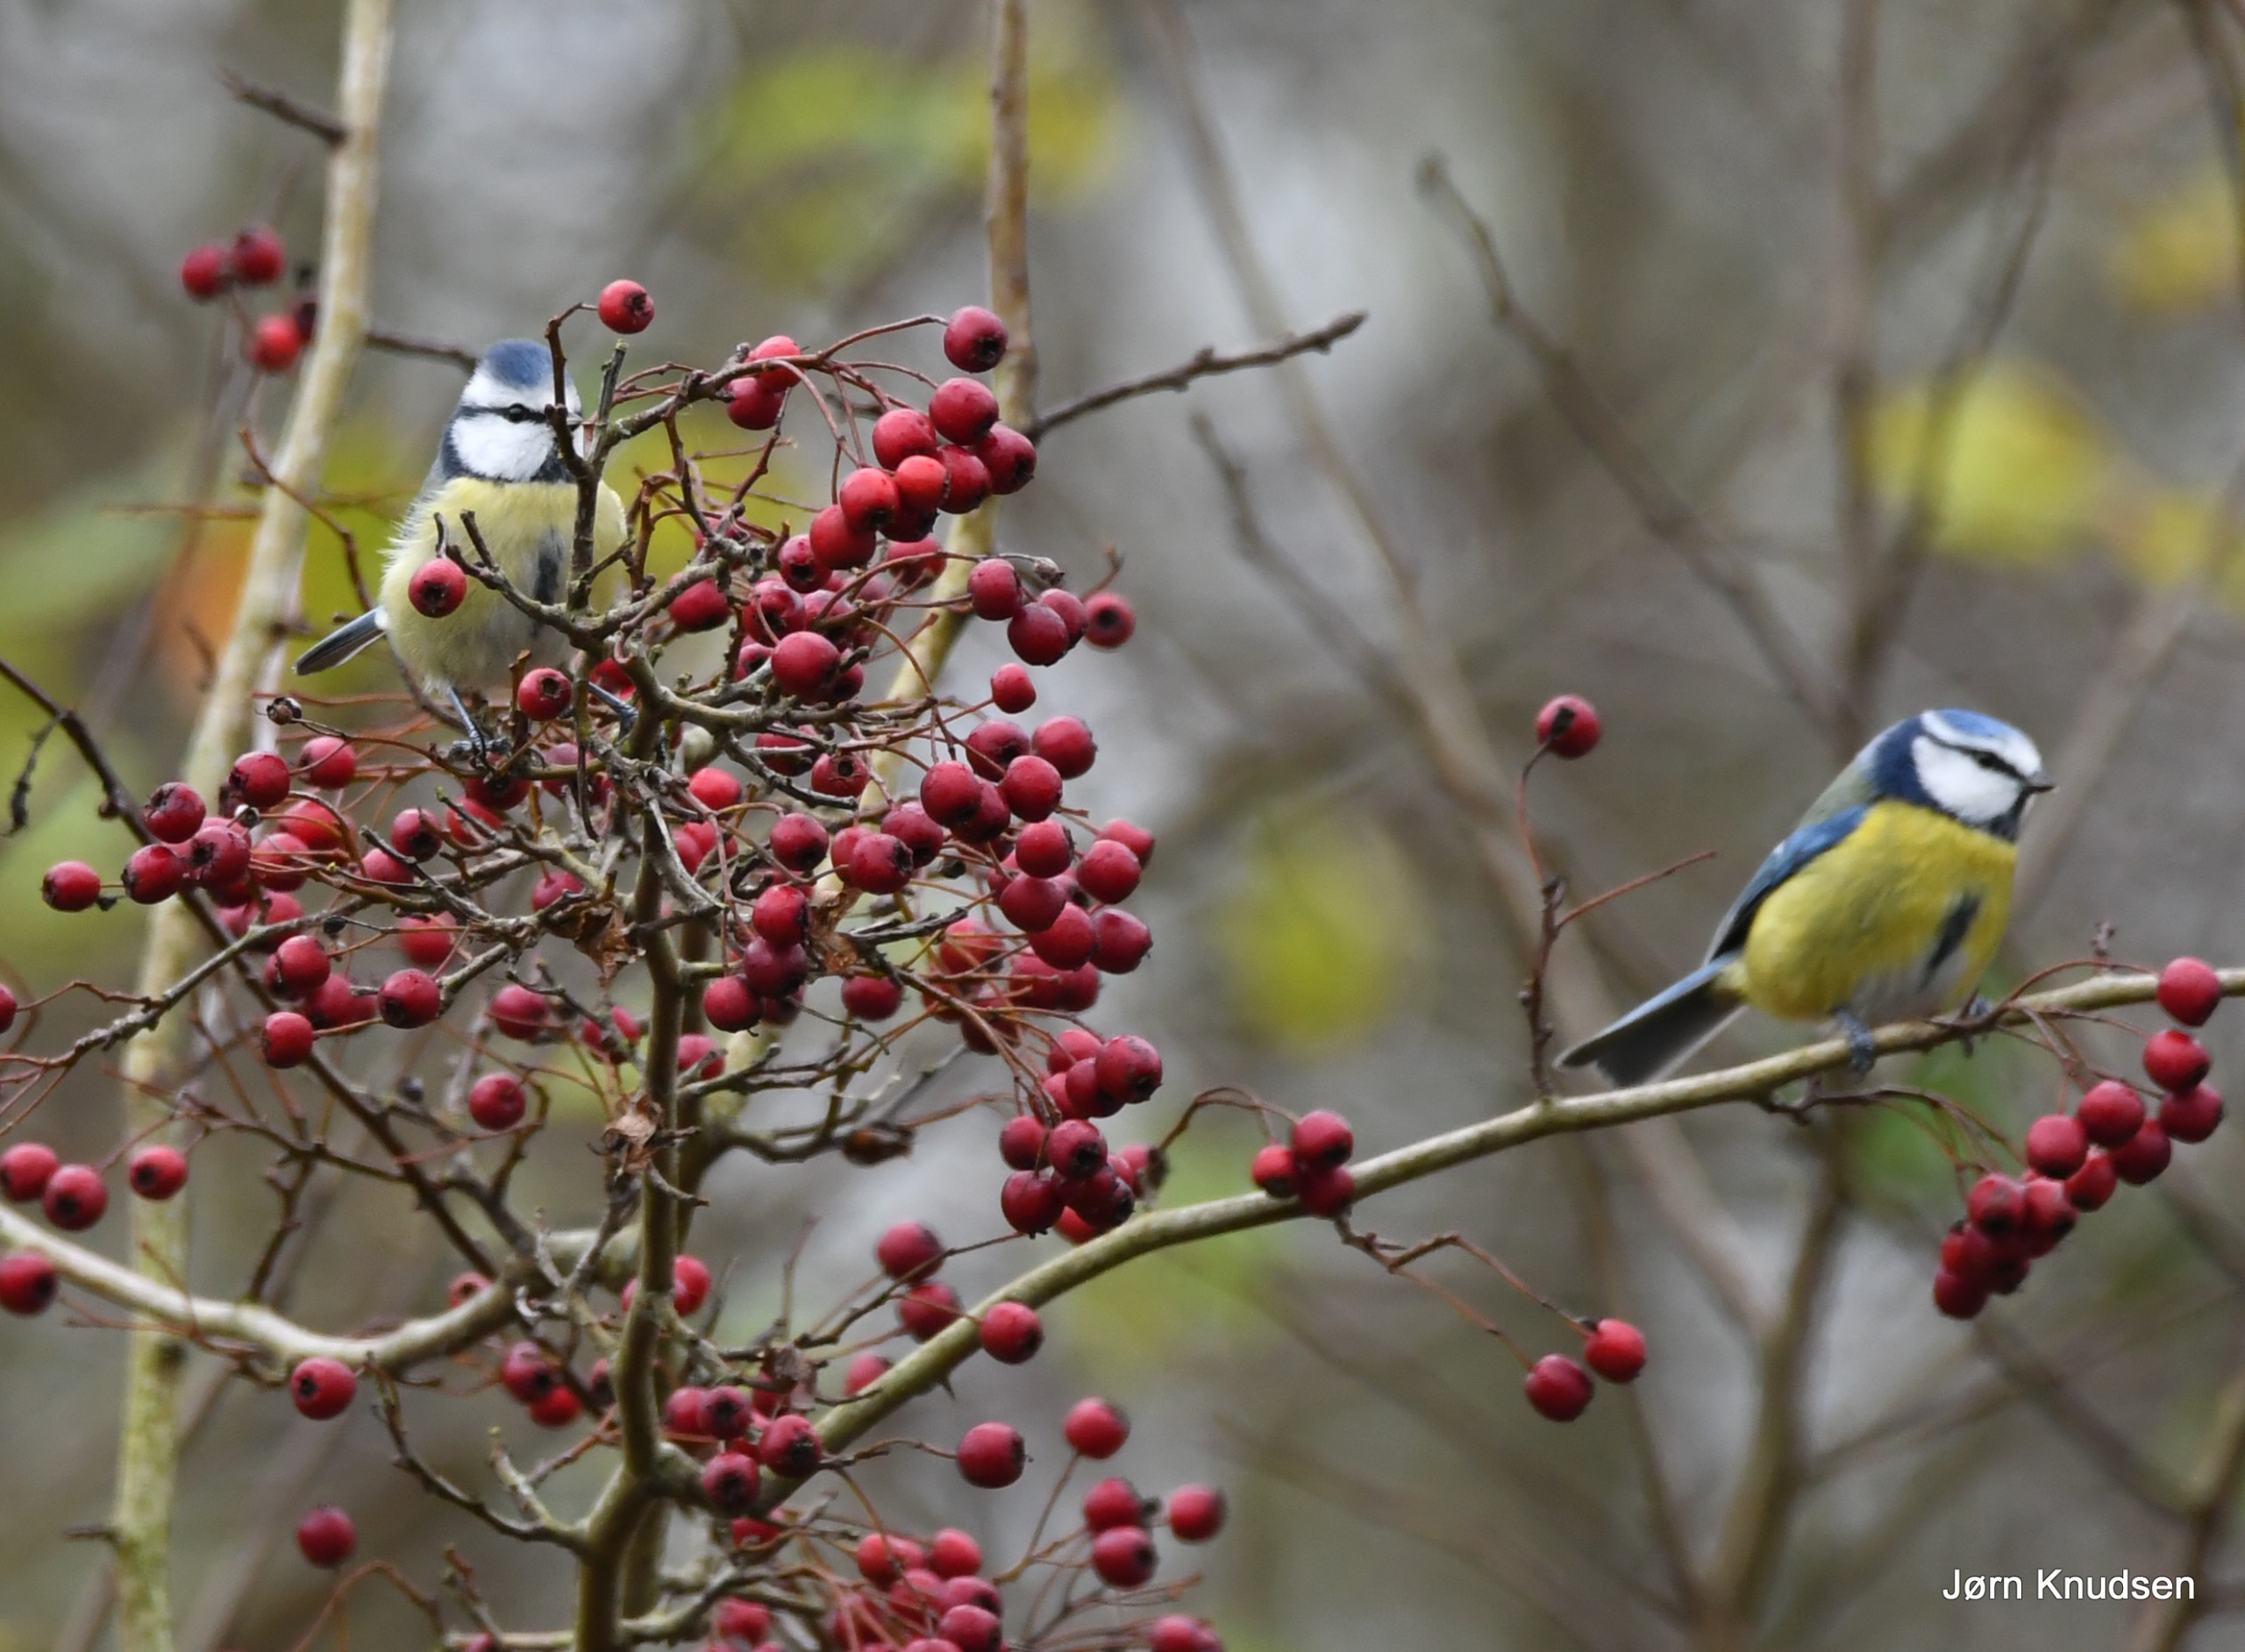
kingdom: Animalia
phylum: Chordata
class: Aves
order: Passeriformes
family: Paridae
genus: Cyanistes
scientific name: Cyanistes caeruleus
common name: Blåmejse
